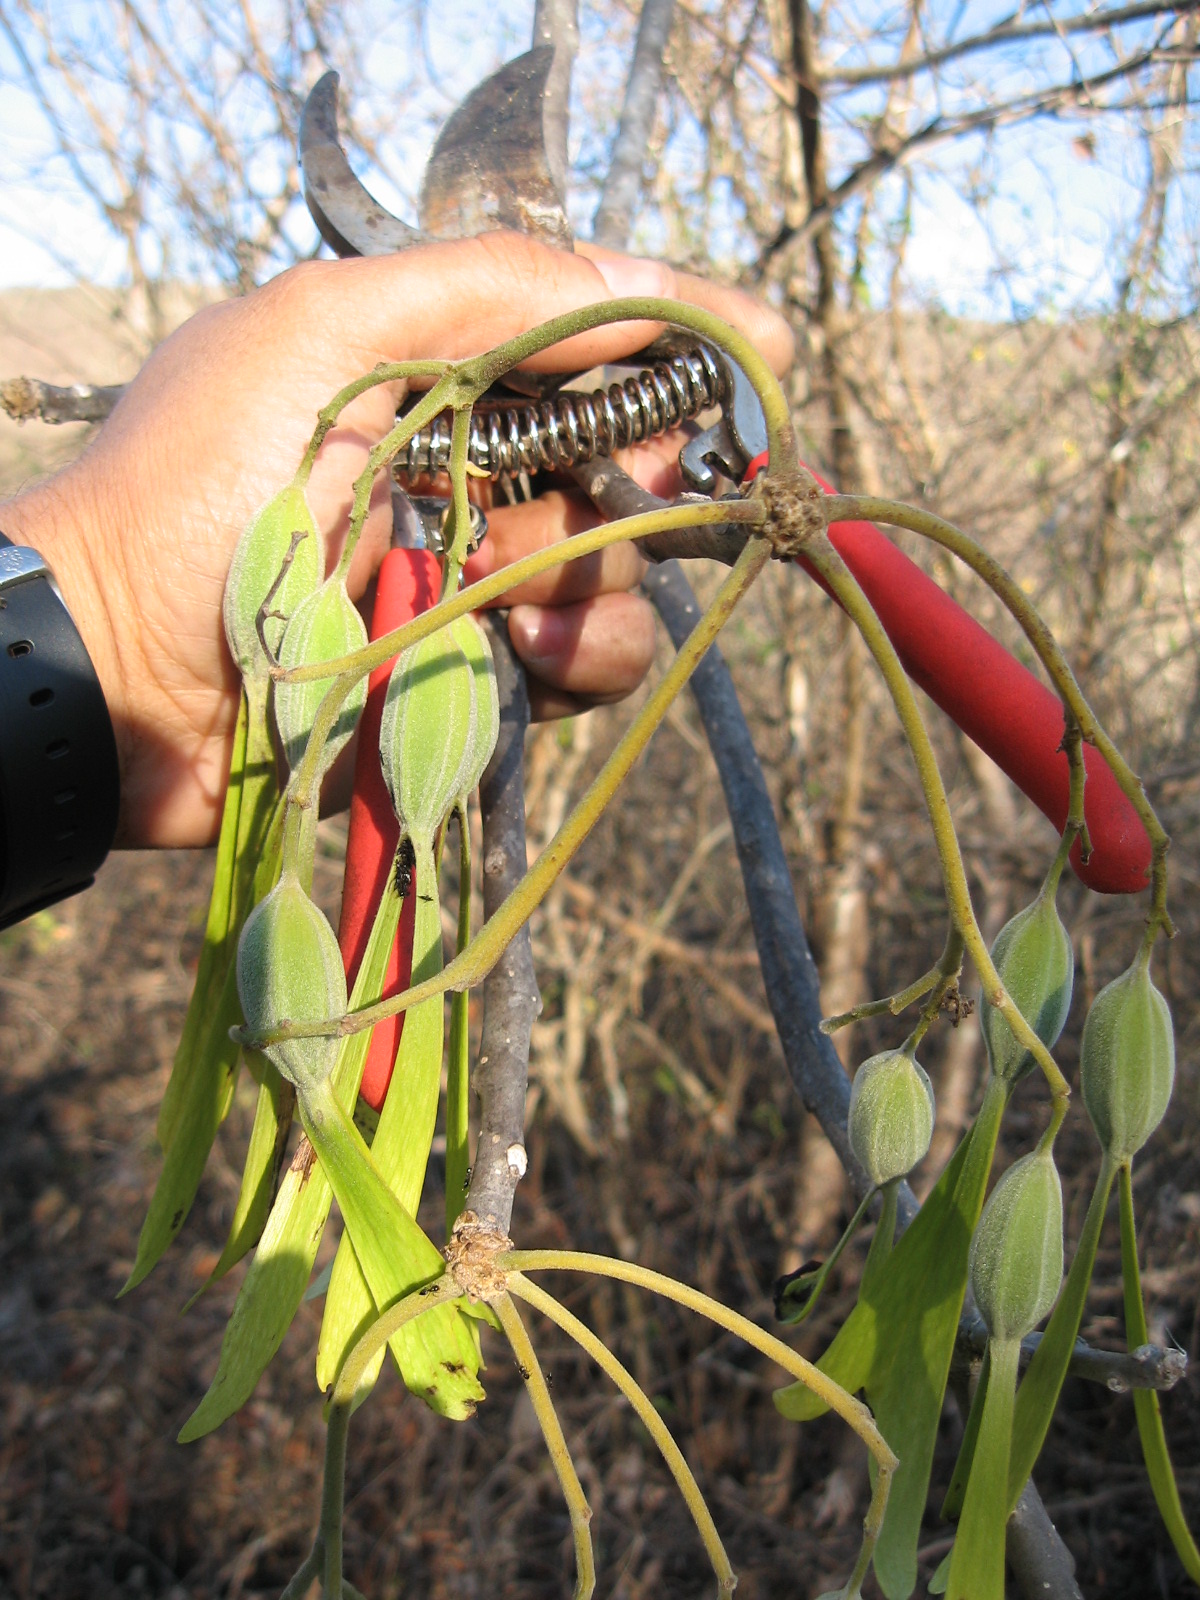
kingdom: Plantae
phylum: Tracheophyta
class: Magnoliopsida
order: Laurales
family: Hernandiaceae
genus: Gyrocarpus
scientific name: Gyrocarpus mocinoi
